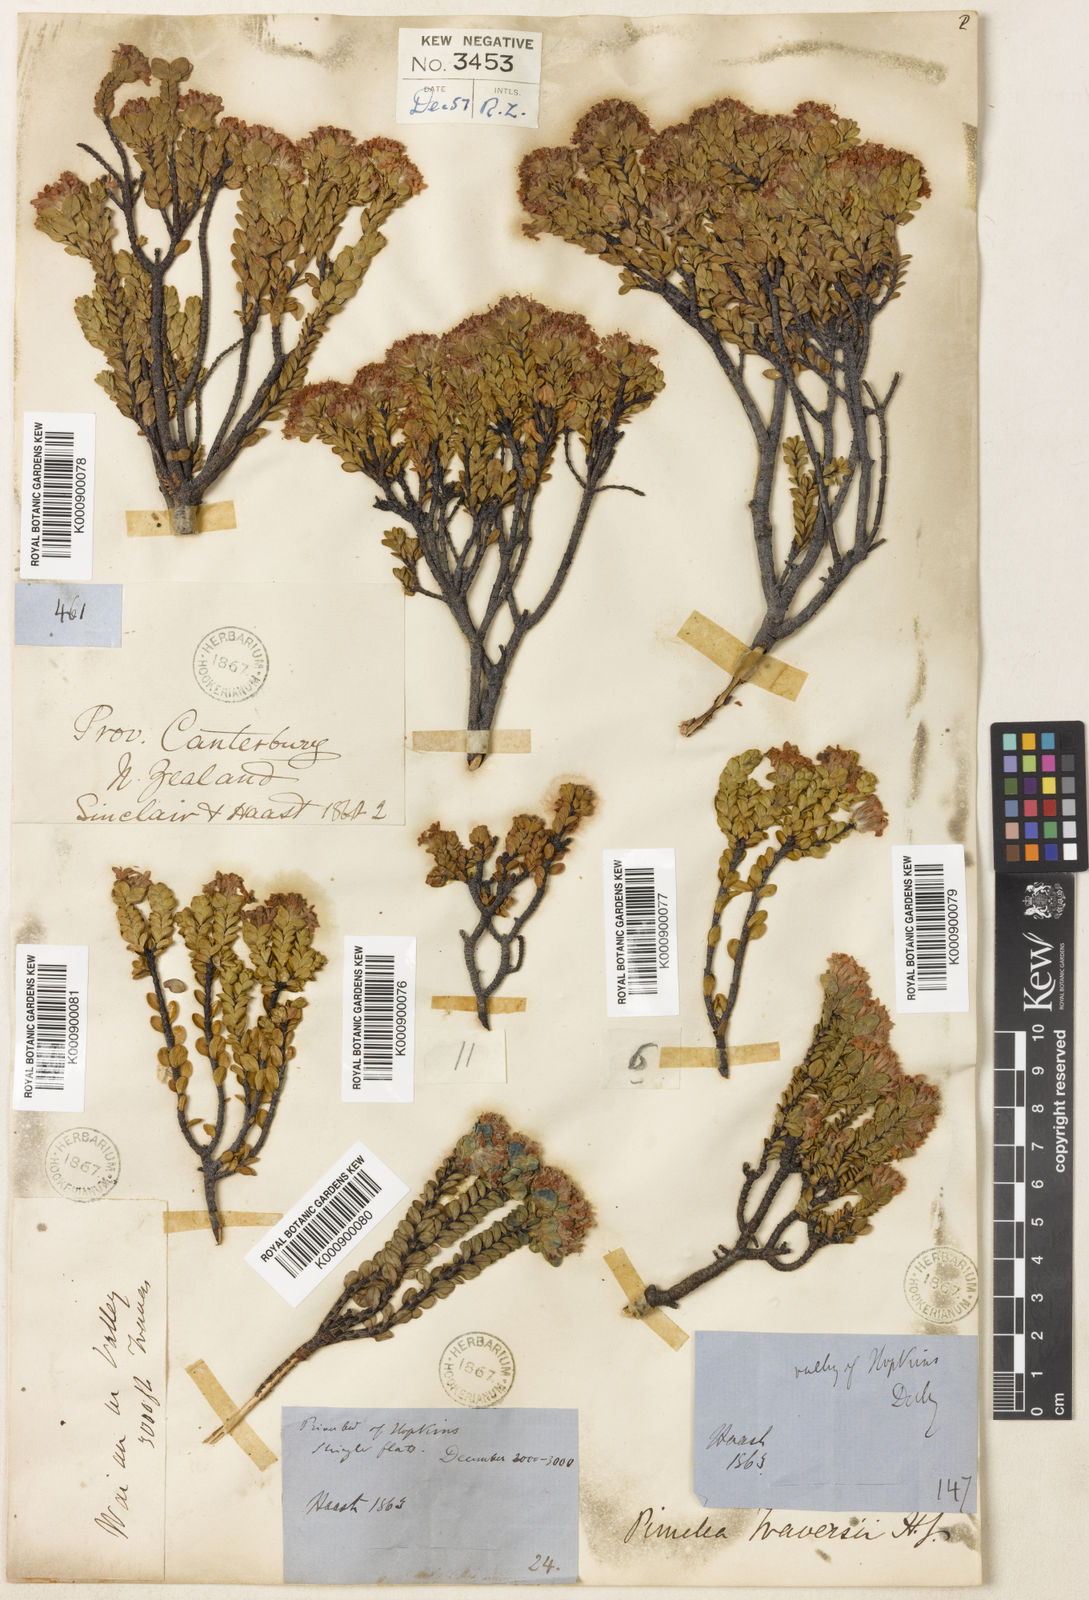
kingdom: Plantae
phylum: Tracheophyta
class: Magnoliopsida
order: Malvales
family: Thymelaeaceae
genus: Pimelea
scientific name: Pimelea traversii
